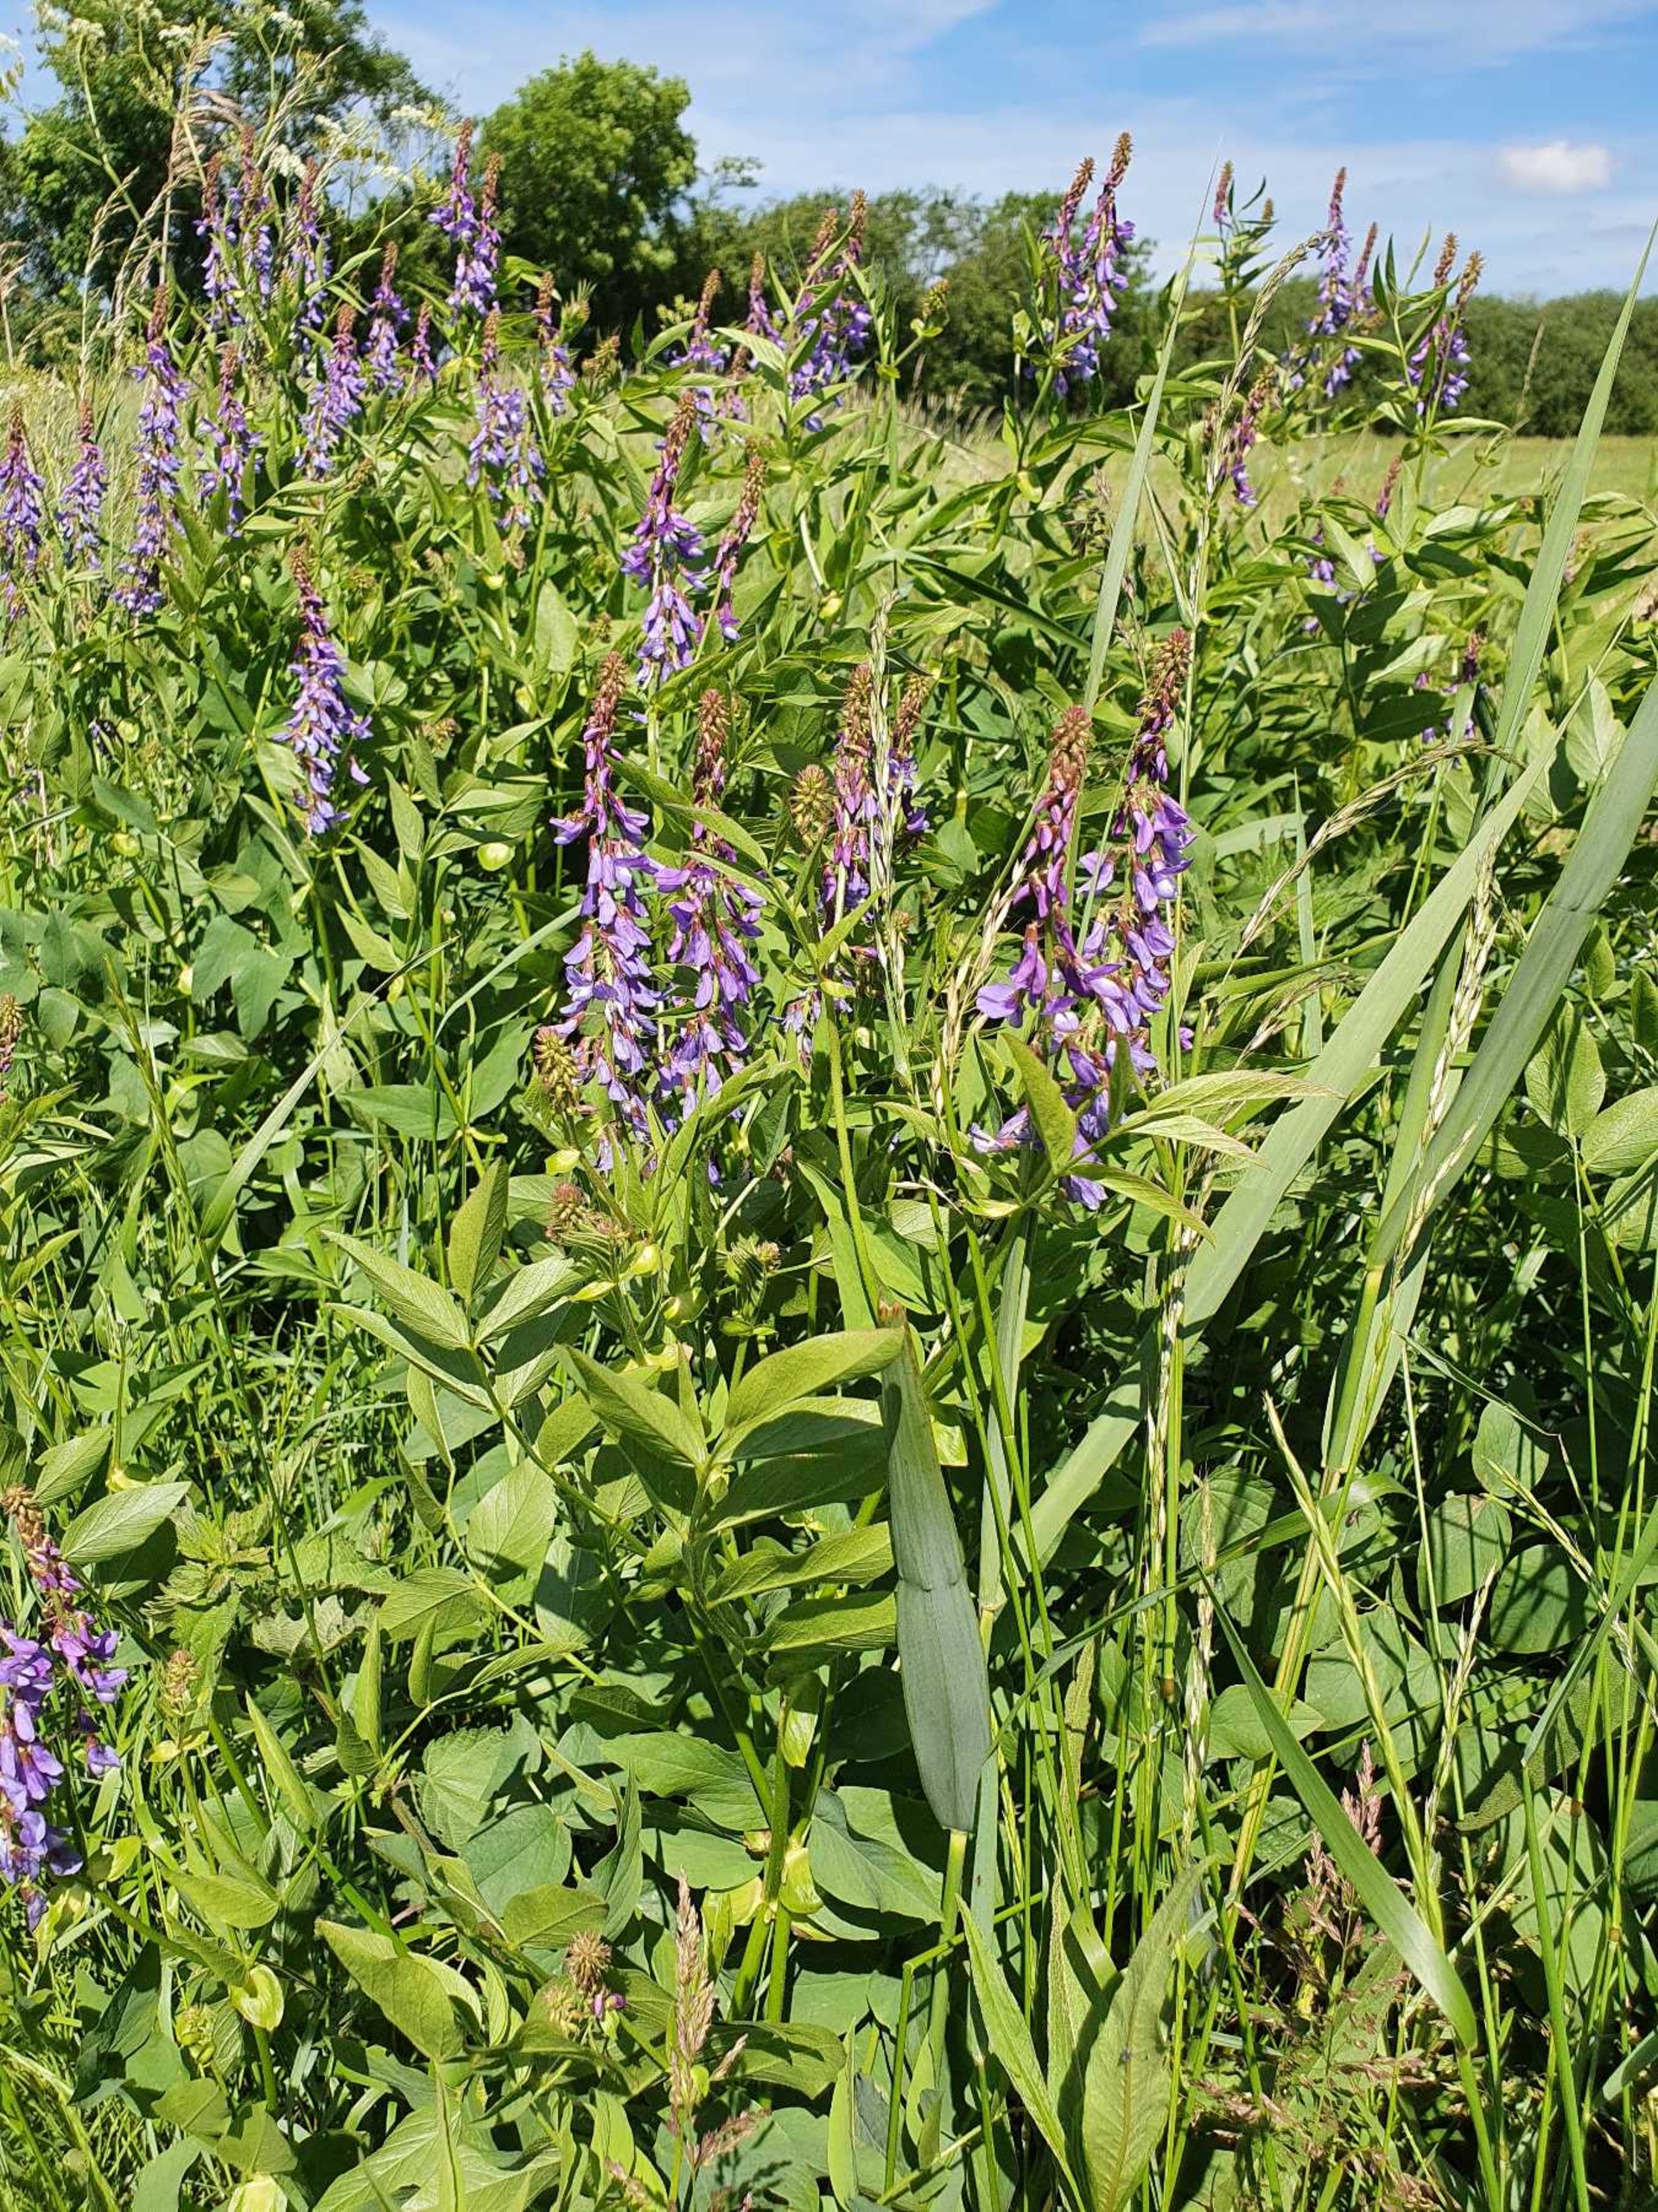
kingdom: Plantae
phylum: Tracheophyta
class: Magnoliopsida
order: Fabales
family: Fabaceae
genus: Galega
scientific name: Galega orientalis
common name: Blå stregbælg
